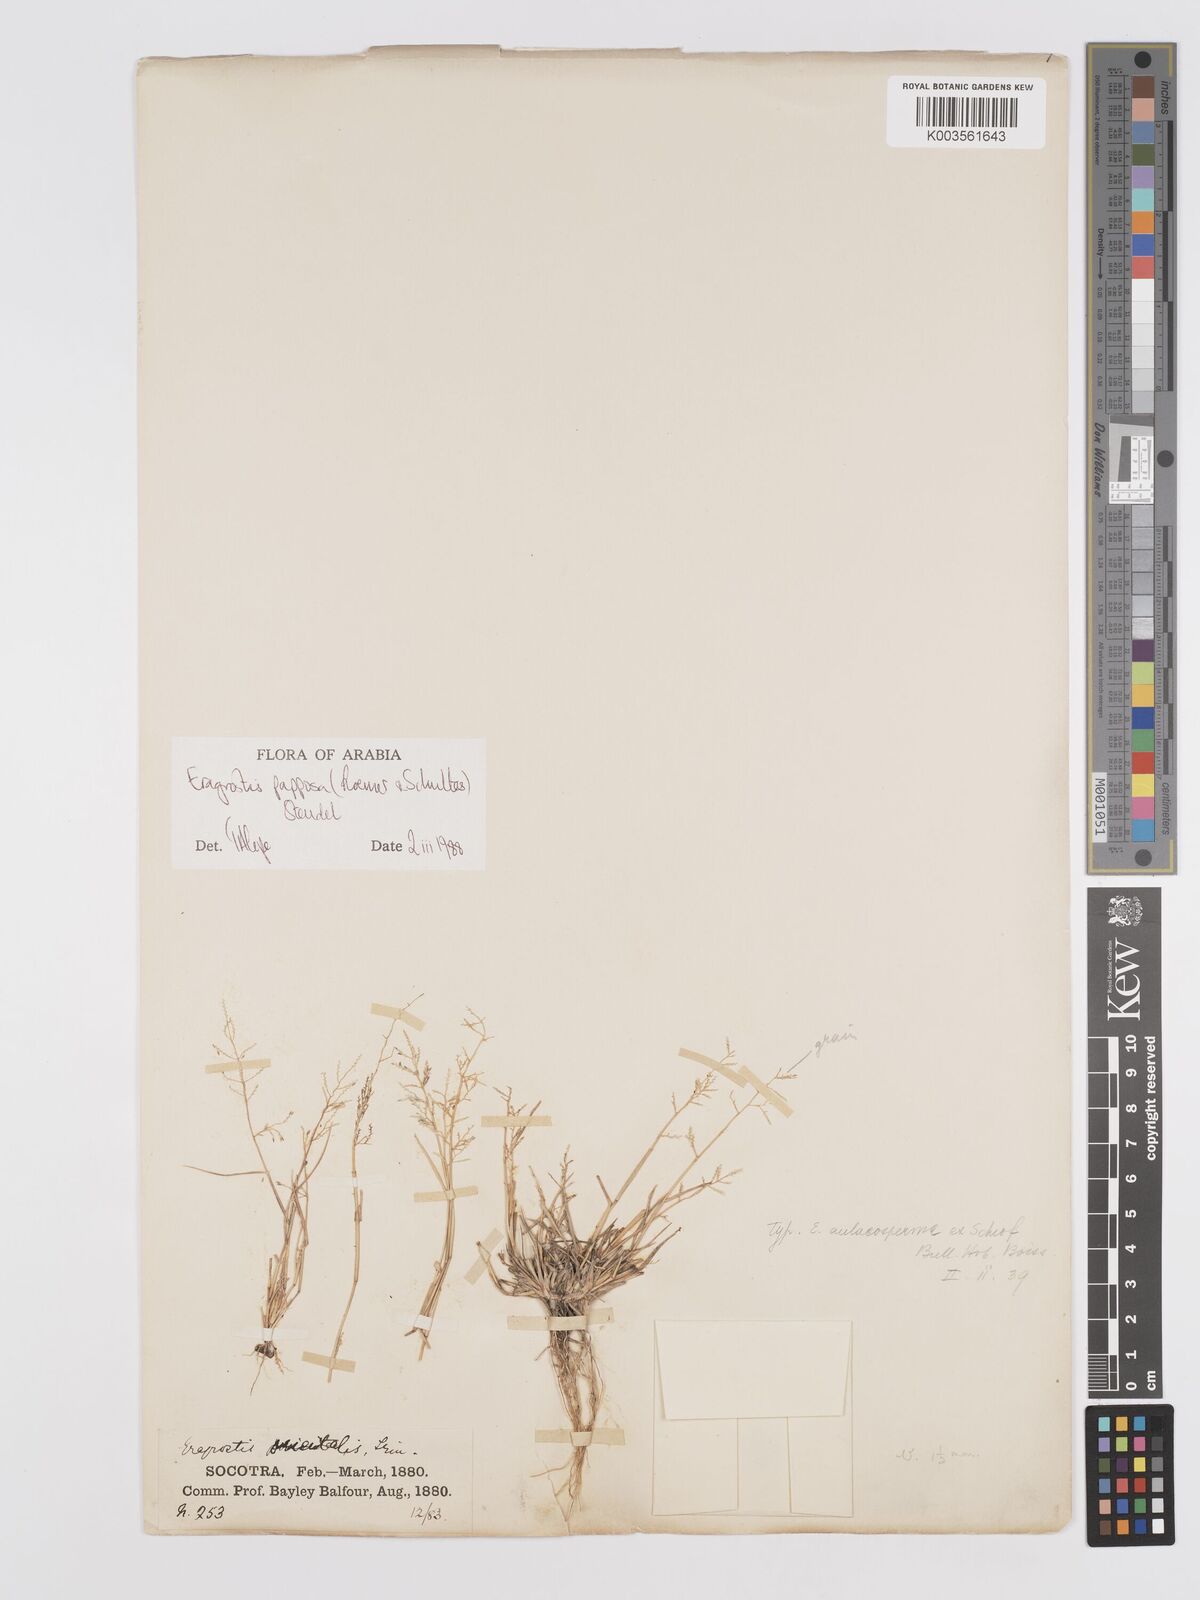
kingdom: Plantae
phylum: Tracheophyta
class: Liliopsida
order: Poales
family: Poaceae
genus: Eragrostis
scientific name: Eragrostis papposa
